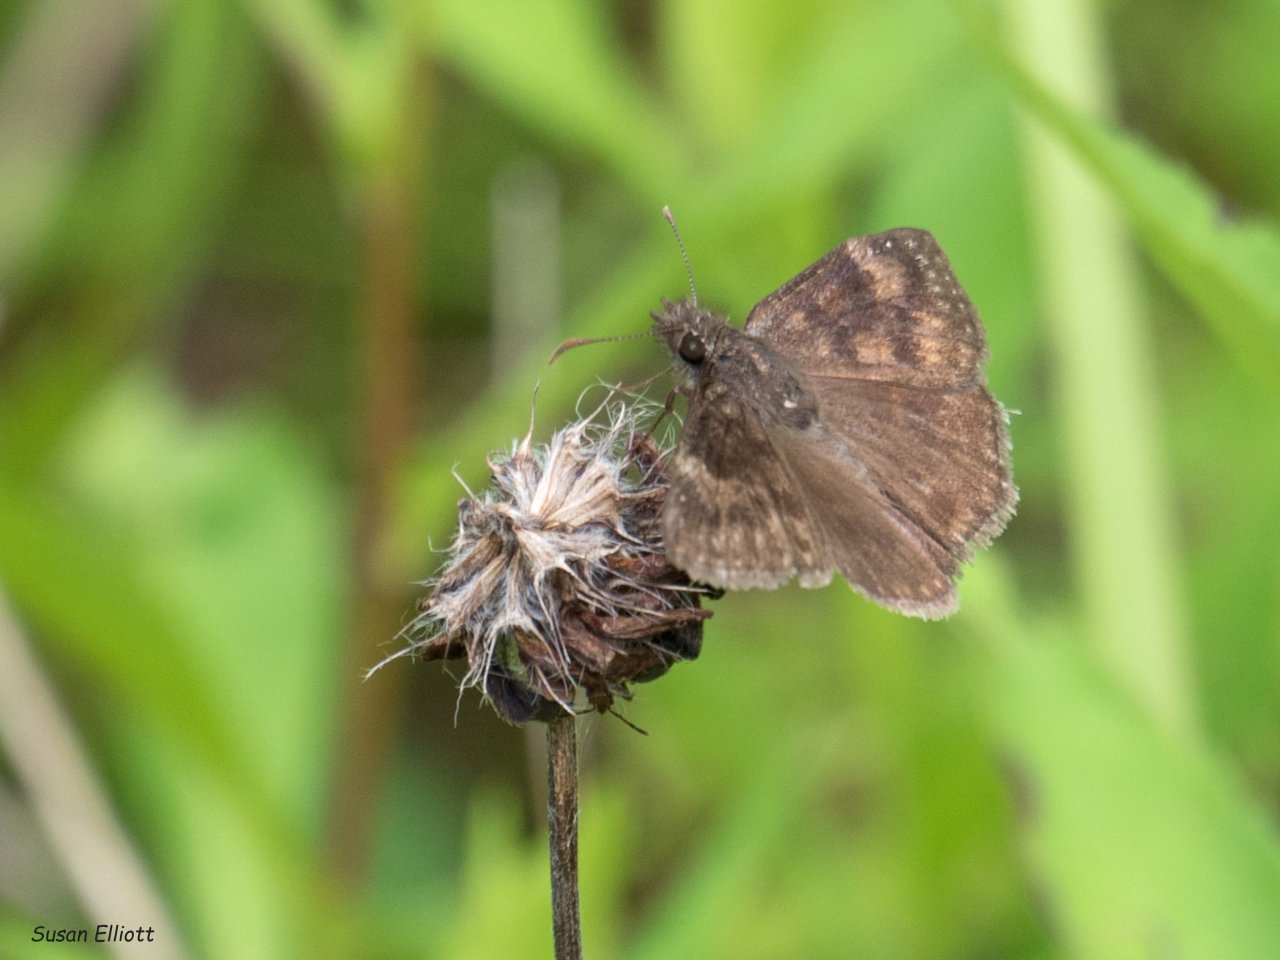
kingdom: Animalia
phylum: Arthropoda
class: Insecta
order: Lepidoptera
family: Hesperiidae
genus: Erynnis
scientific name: Erynnis
